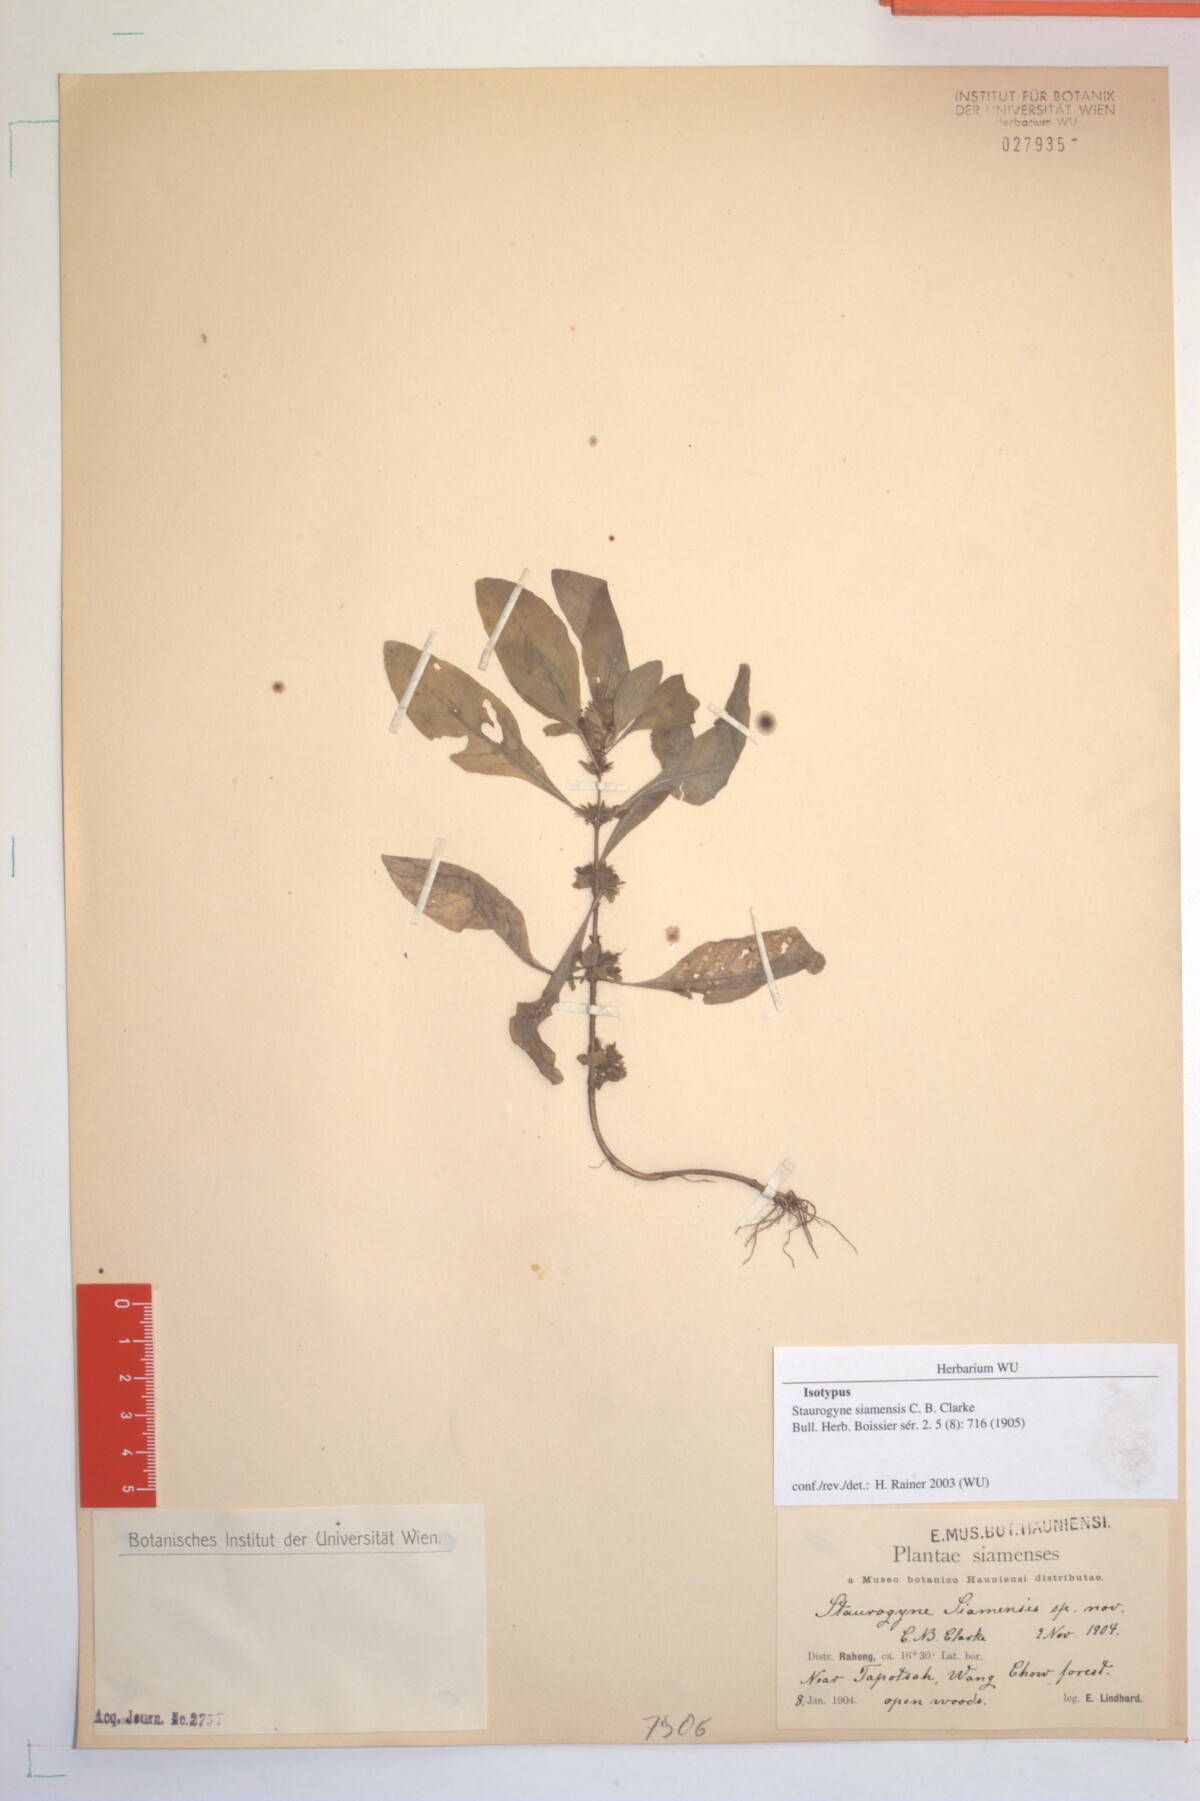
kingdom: Plantae
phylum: Tracheophyta
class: Magnoliopsida
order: Lamiales
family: Acanthaceae
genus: Staurogyne
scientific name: Staurogyne spathulata
